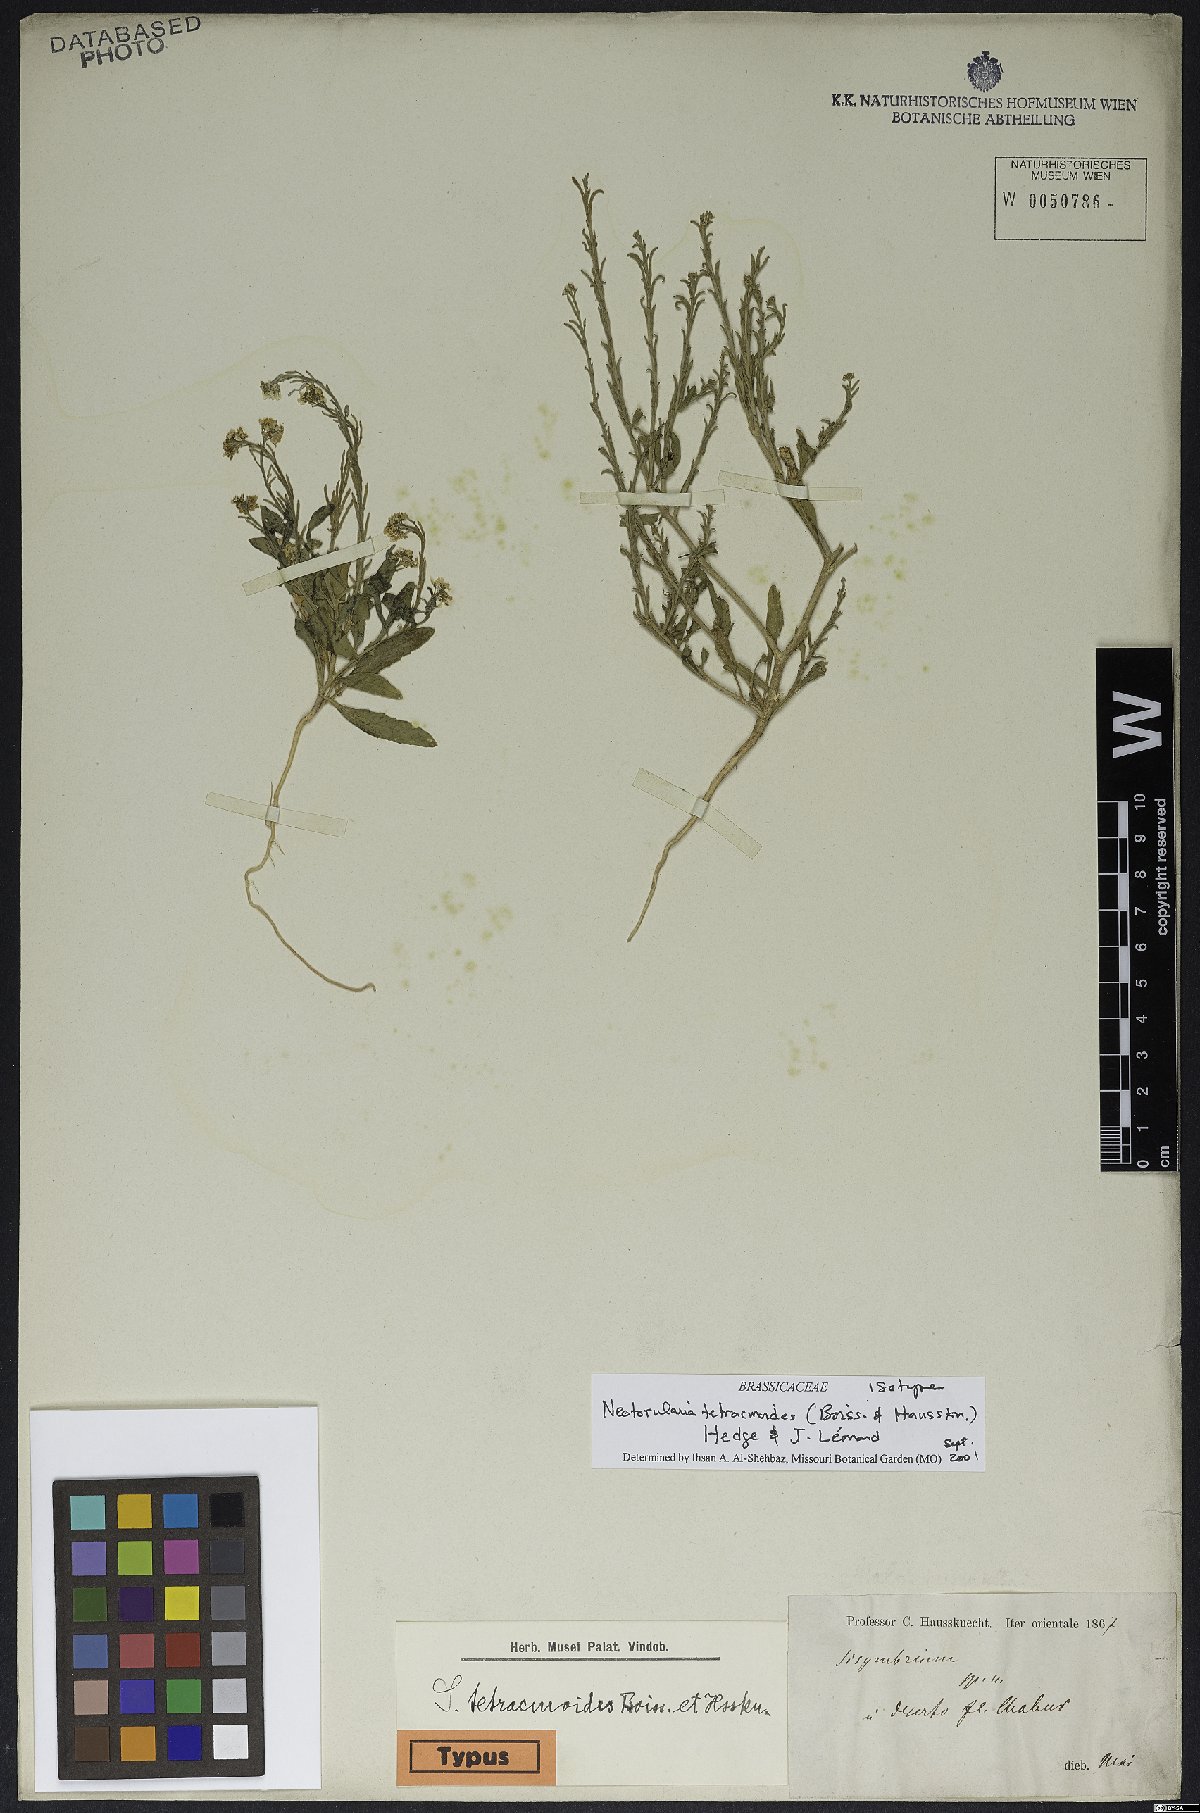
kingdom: Plantae
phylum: Tracheophyta
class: Magnoliopsida
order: Brassicales
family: Brassicaceae
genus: Neotorularia
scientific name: Neotorularia tetracmoides
